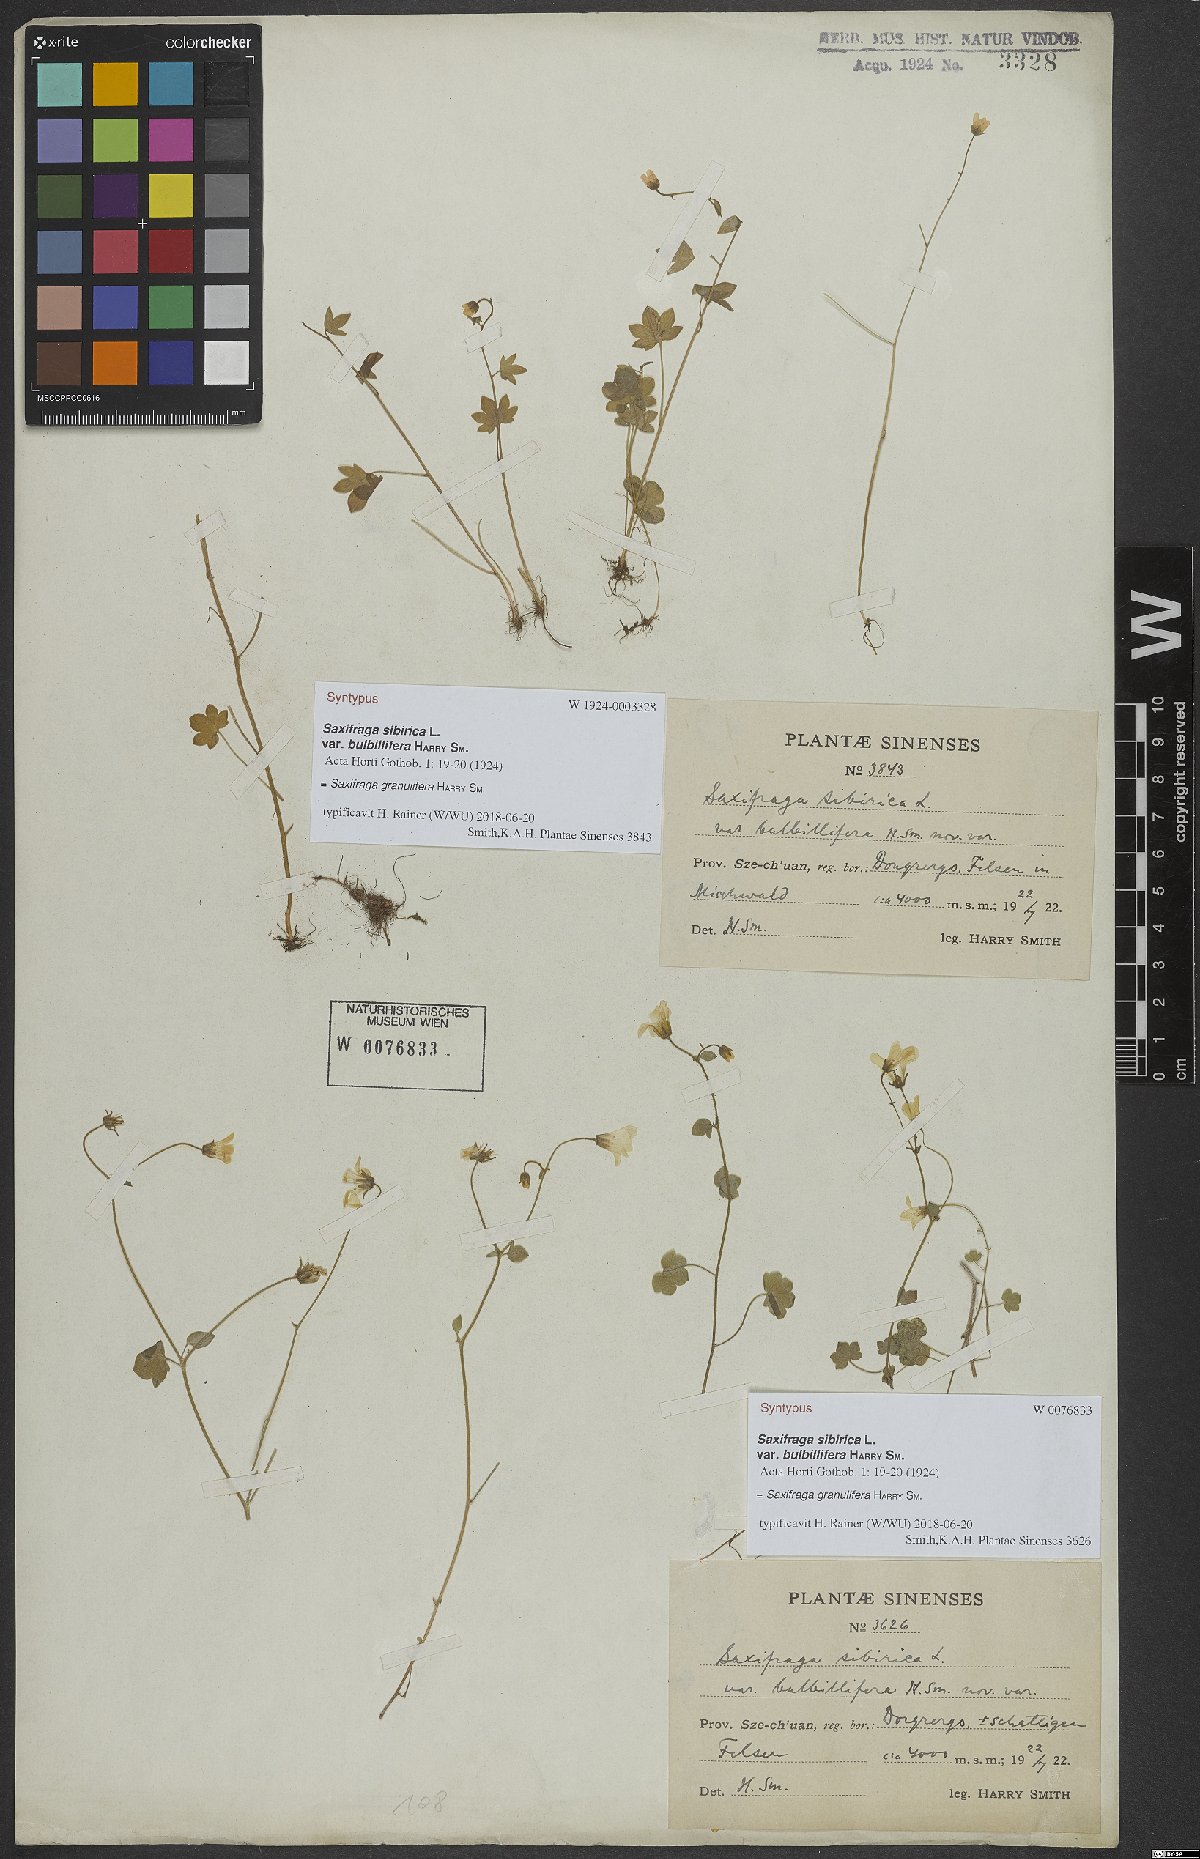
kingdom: Plantae
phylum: Tracheophyta
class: Magnoliopsida
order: Saxifragales
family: Saxifragaceae
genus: Saxifraga
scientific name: Saxifraga granulifera
